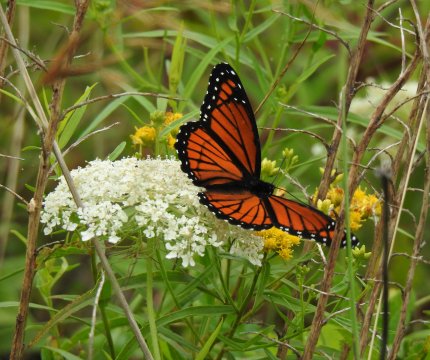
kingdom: Animalia
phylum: Arthropoda
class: Insecta
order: Lepidoptera
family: Nymphalidae
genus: Limenitis
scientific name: Limenitis archippus
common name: Viceroy
